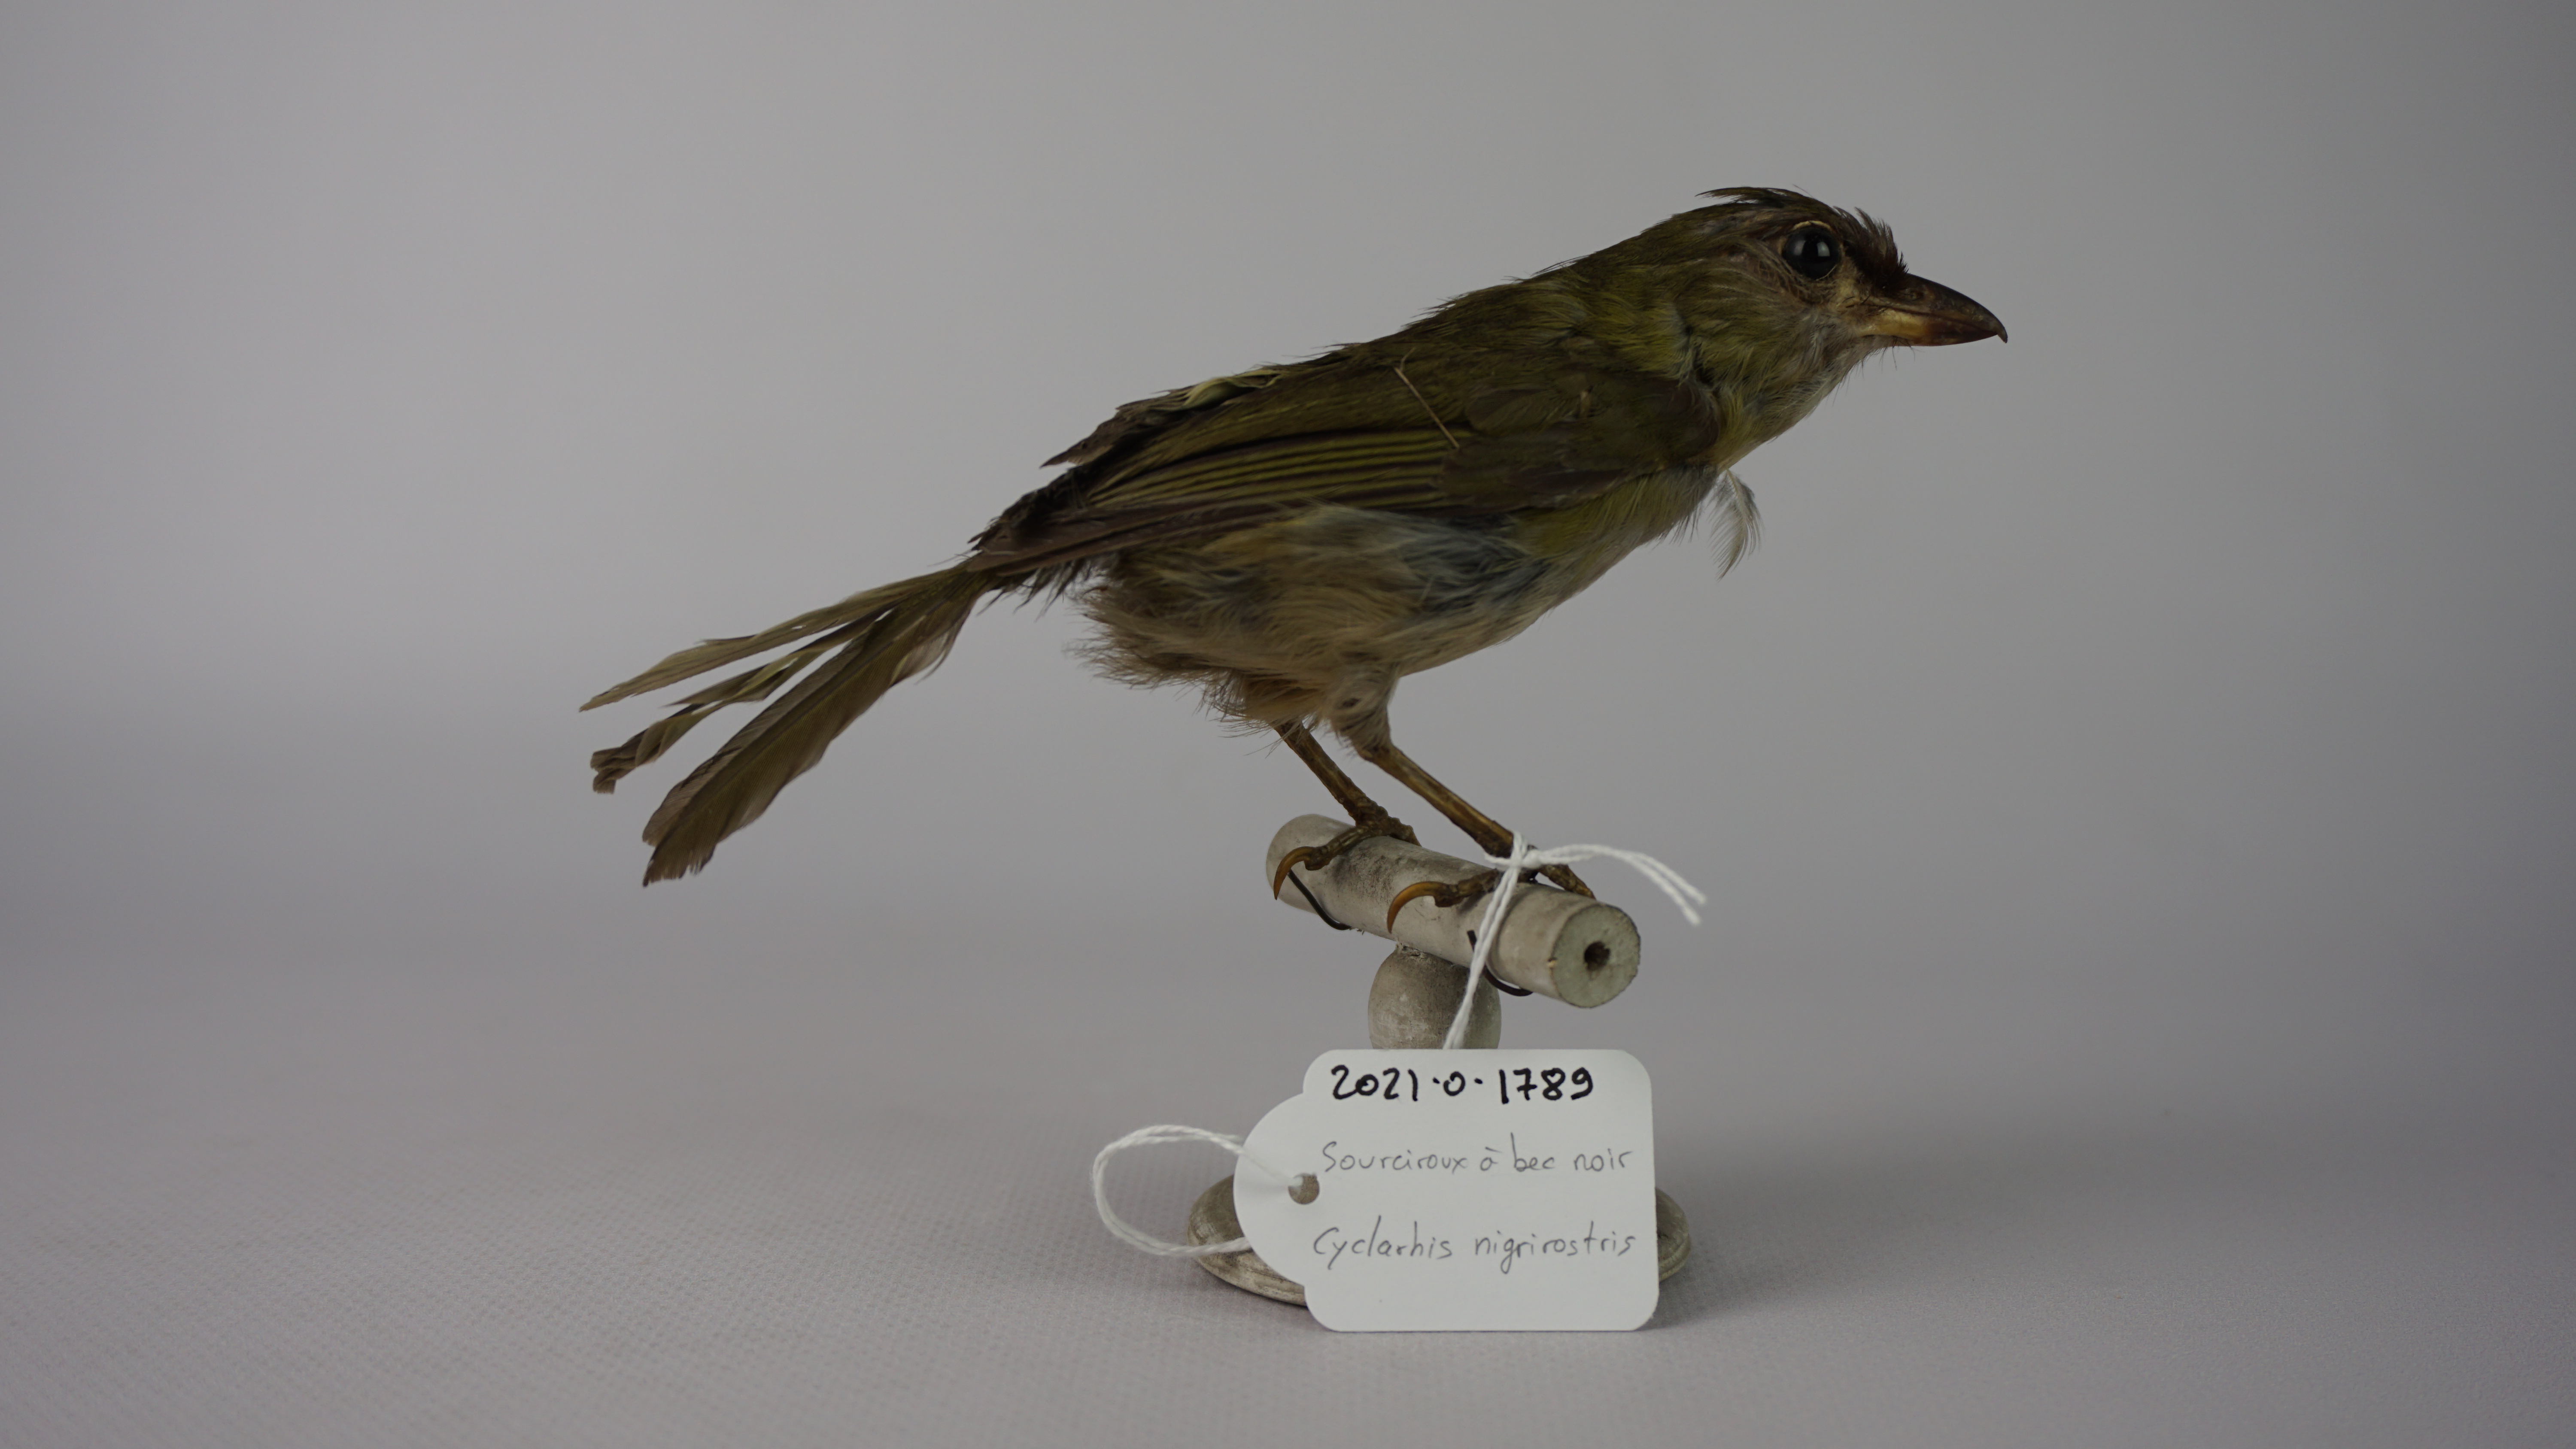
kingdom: Animalia
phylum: Chordata
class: Aves
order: Passeriformes
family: Vireonidae
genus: Cyclarhis
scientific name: Cyclarhis nigrirostris
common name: Black-billed peppershrike
